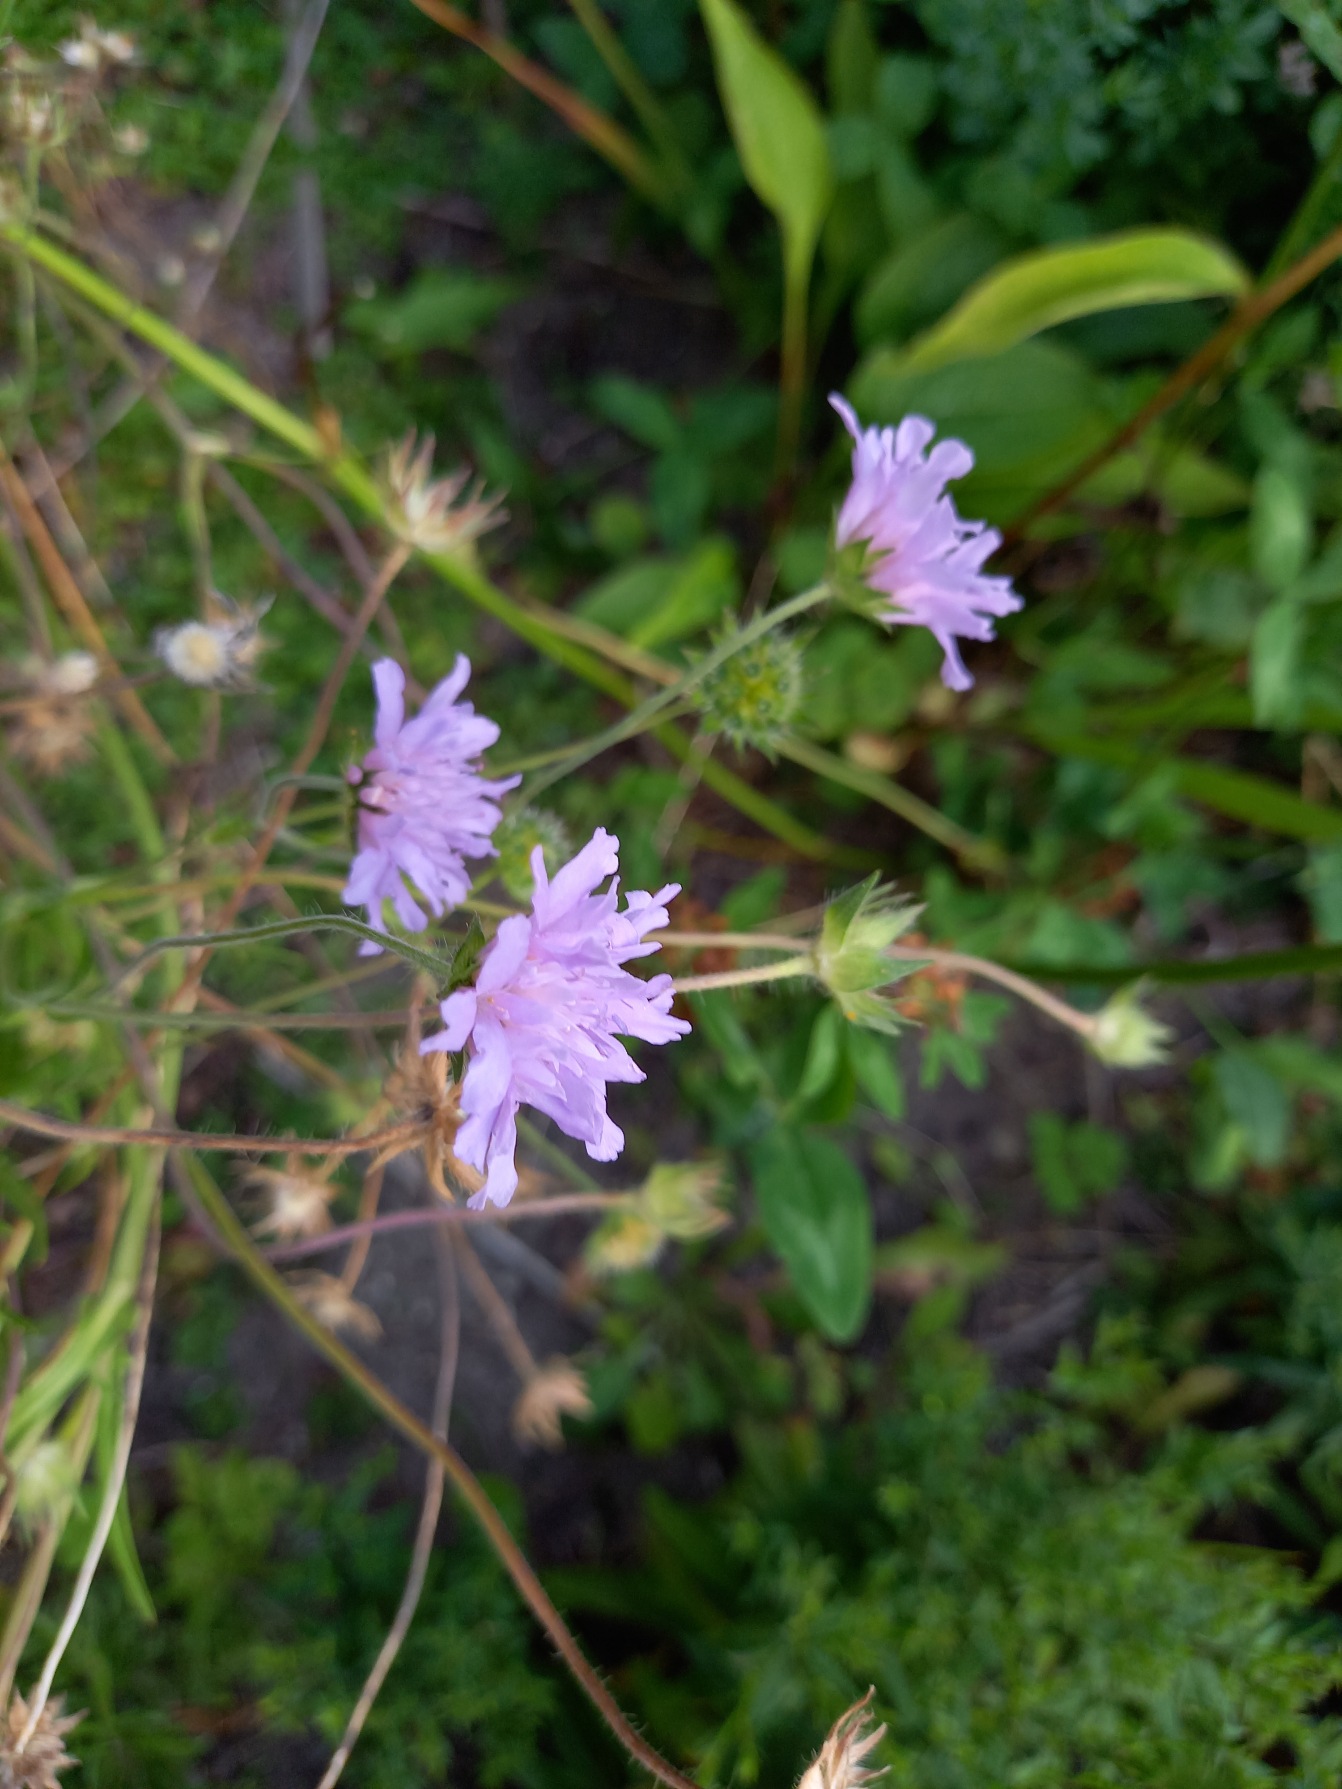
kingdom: Plantae
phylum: Tracheophyta
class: Magnoliopsida
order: Dipsacales
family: Caprifoliaceae
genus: Knautia
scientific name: Knautia arvensis
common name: Blåhat
